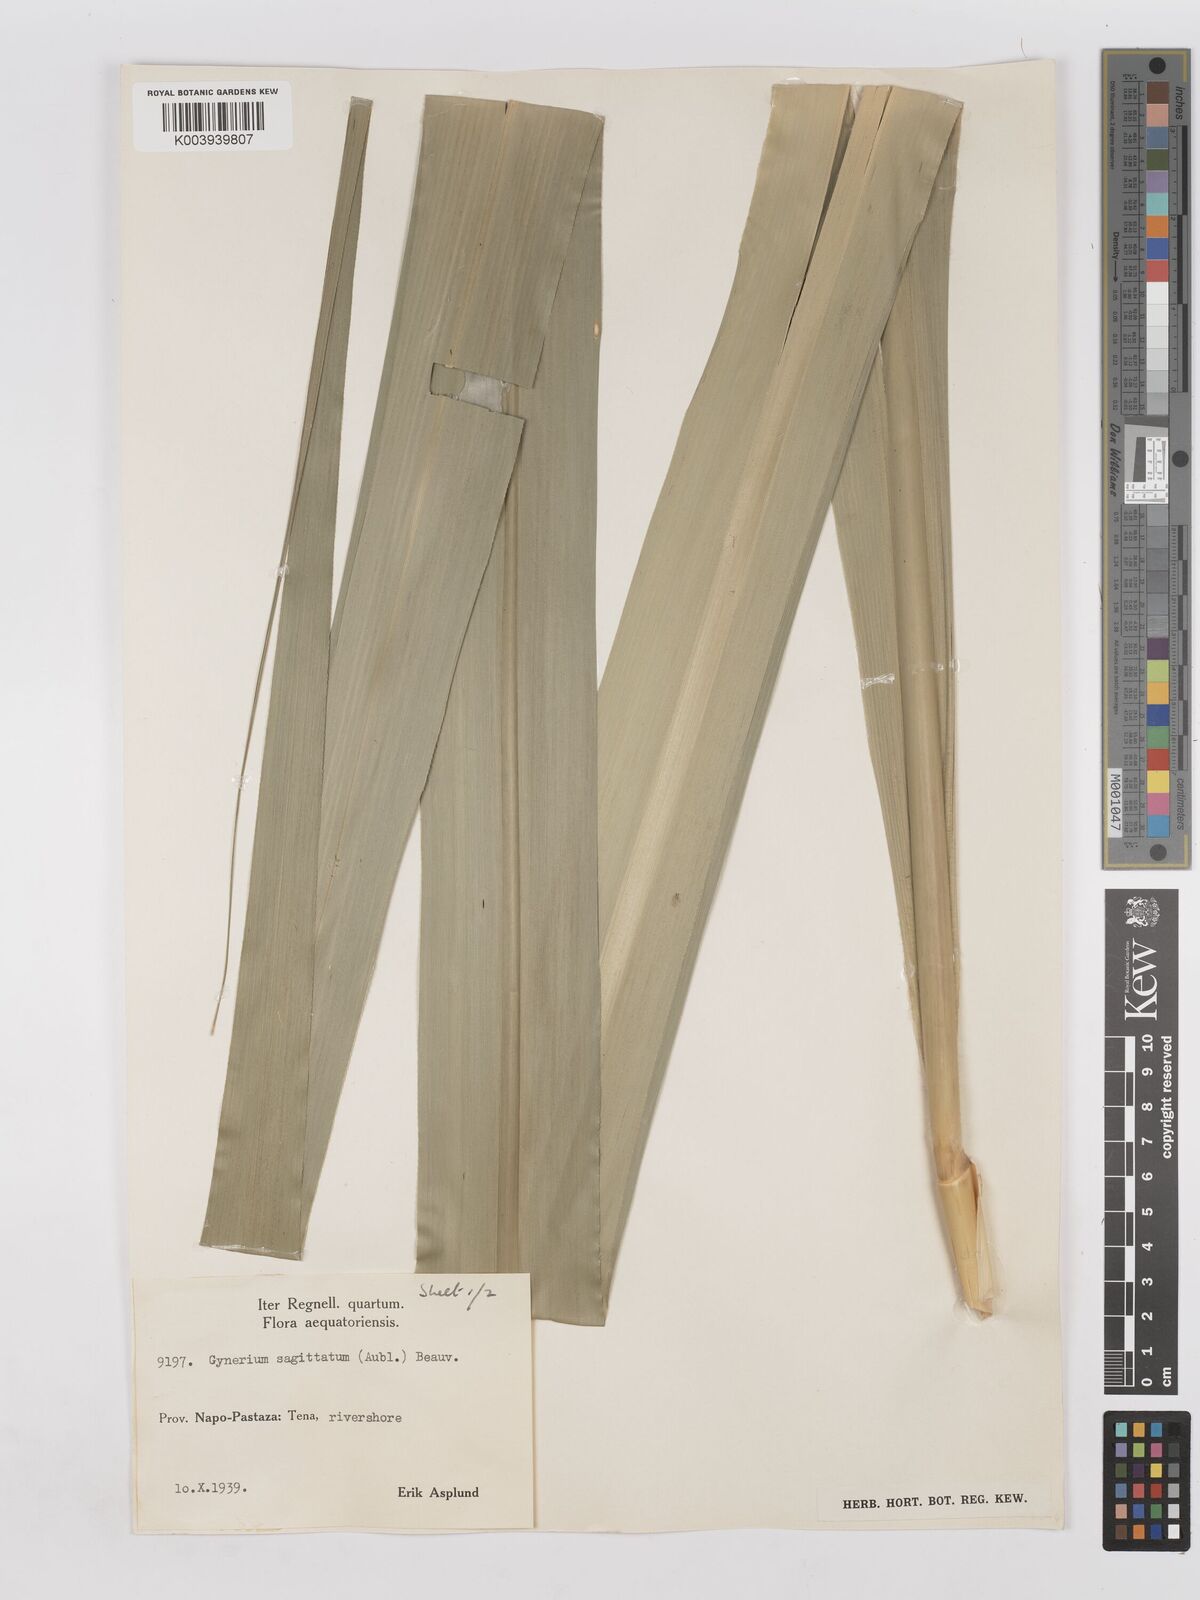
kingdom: Plantae
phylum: Tracheophyta
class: Liliopsida
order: Poales
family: Poaceae
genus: Gynerium
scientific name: Gynerium sagittatum
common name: Wild cane
